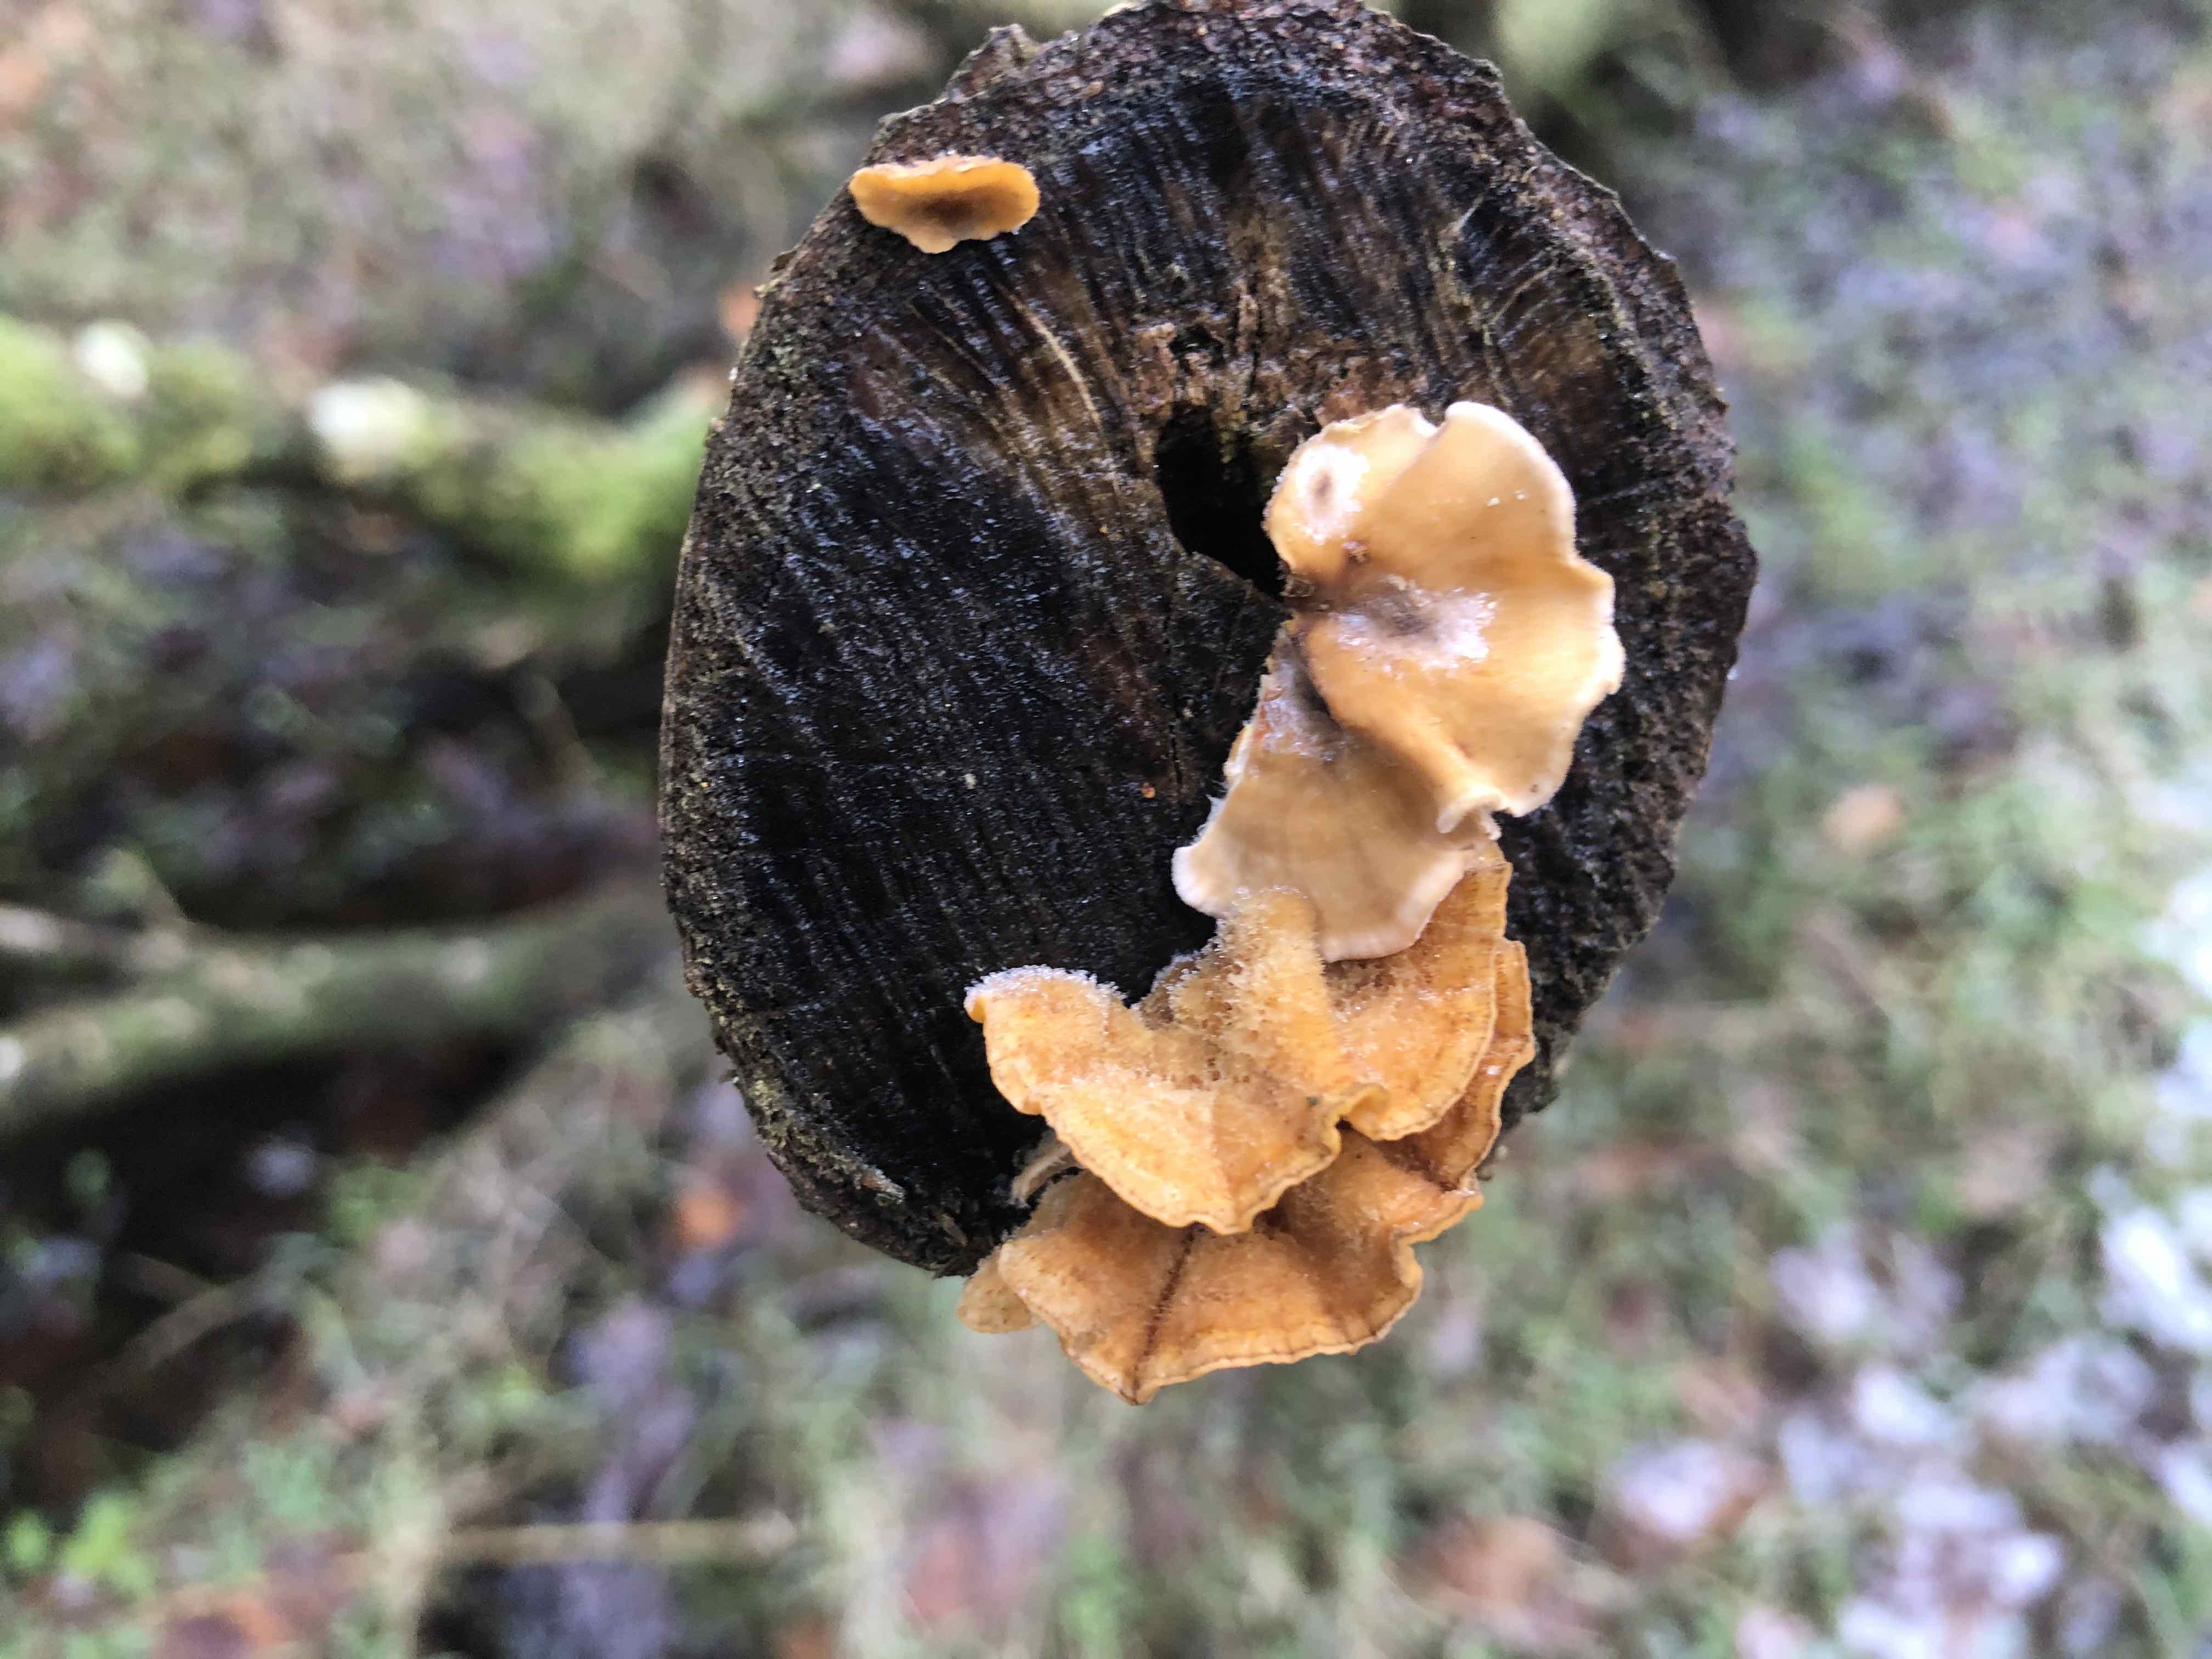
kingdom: Fungi
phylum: Basidiomycota
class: Agaricomycetes
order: Russulales
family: Stereaceae
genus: Stereum
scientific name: Stereum hirsutum
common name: håret lædersvamp
